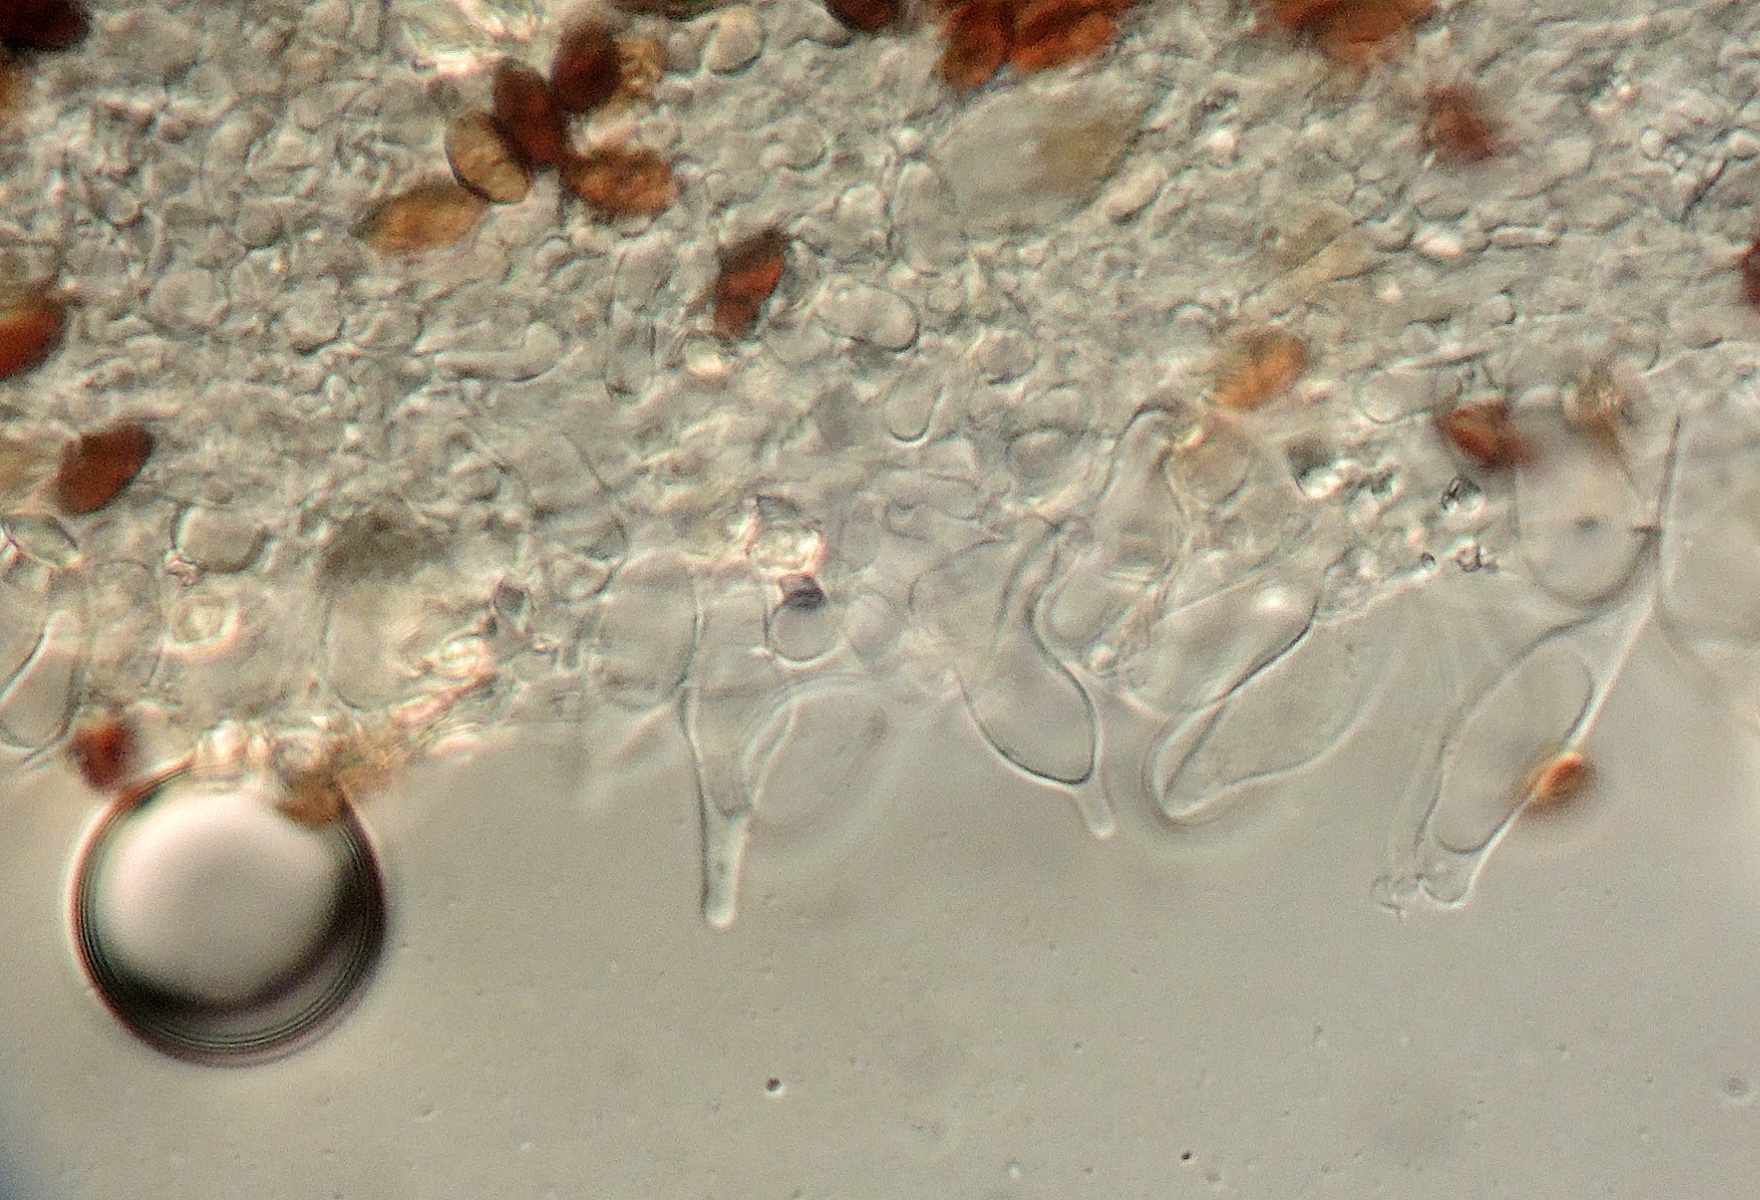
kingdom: Fungi
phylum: Basidiomycota
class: Agaricomycetes
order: Agaricales
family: Psathyrellaceae
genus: Psathyrella
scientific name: Psathyrella flexispora
